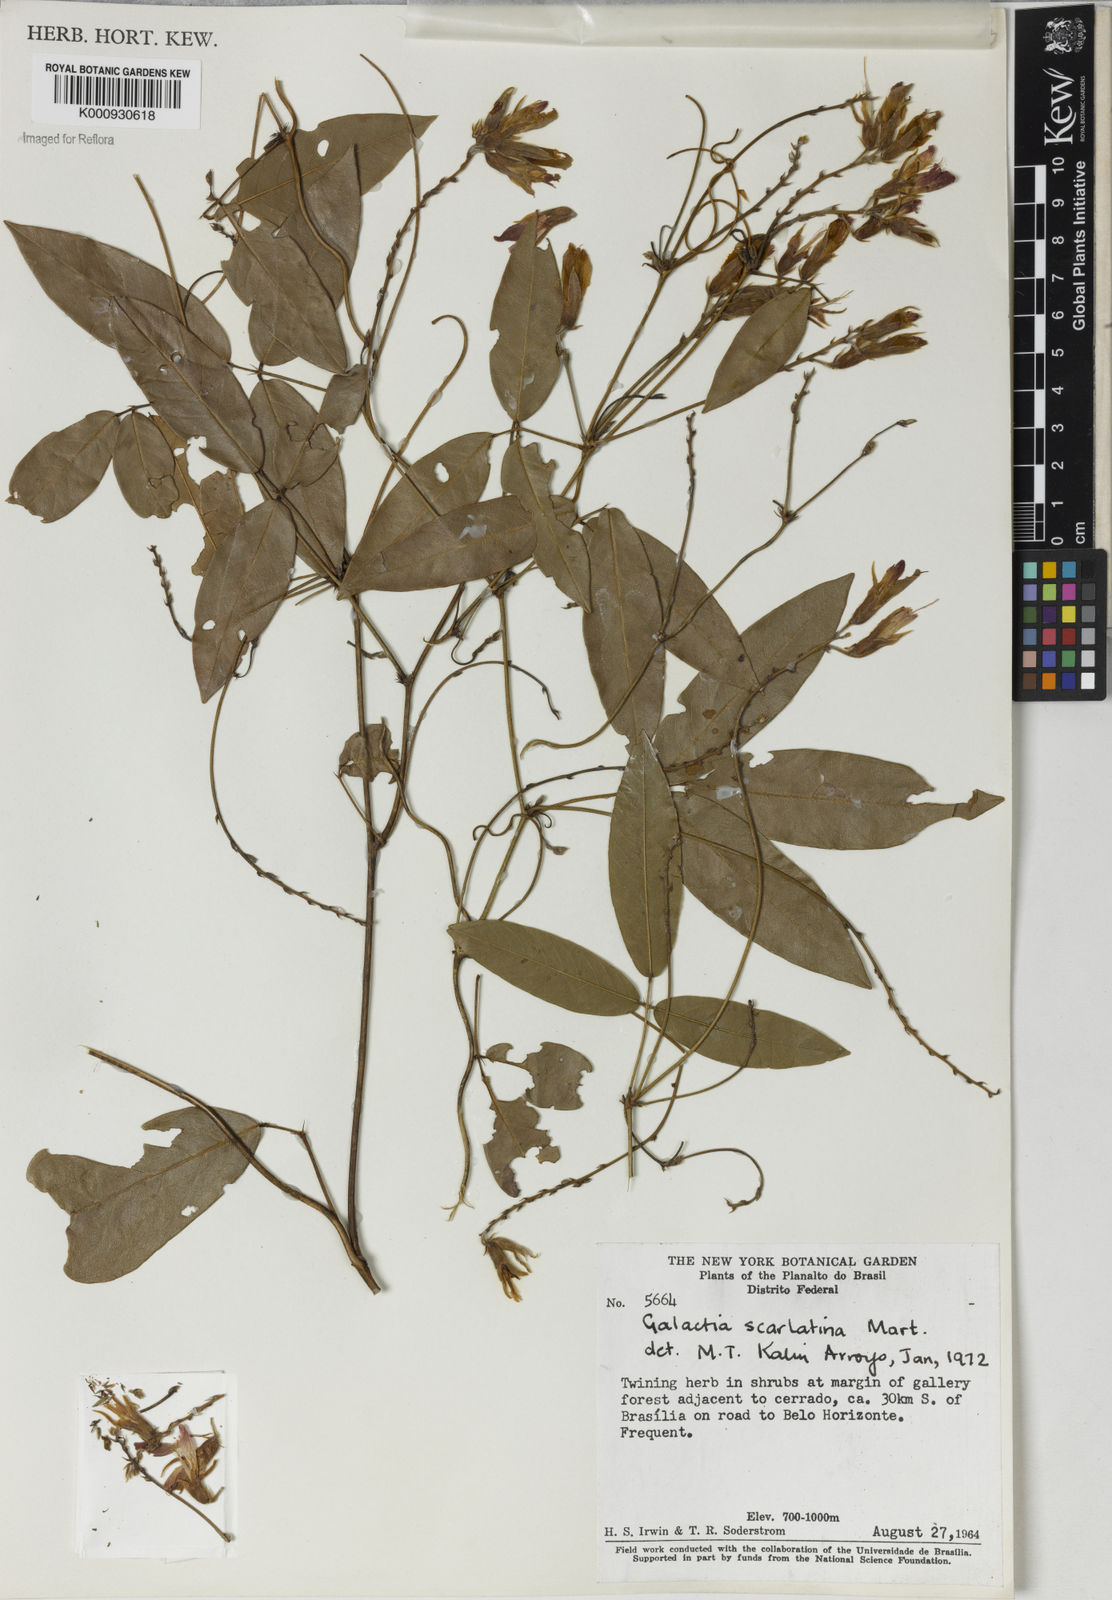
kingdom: Plantae
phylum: Tracheophyta
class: Magnoliopsida
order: Fabales
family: Fabaceae
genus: Betencourtia
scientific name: Betencourtia scarlatina
